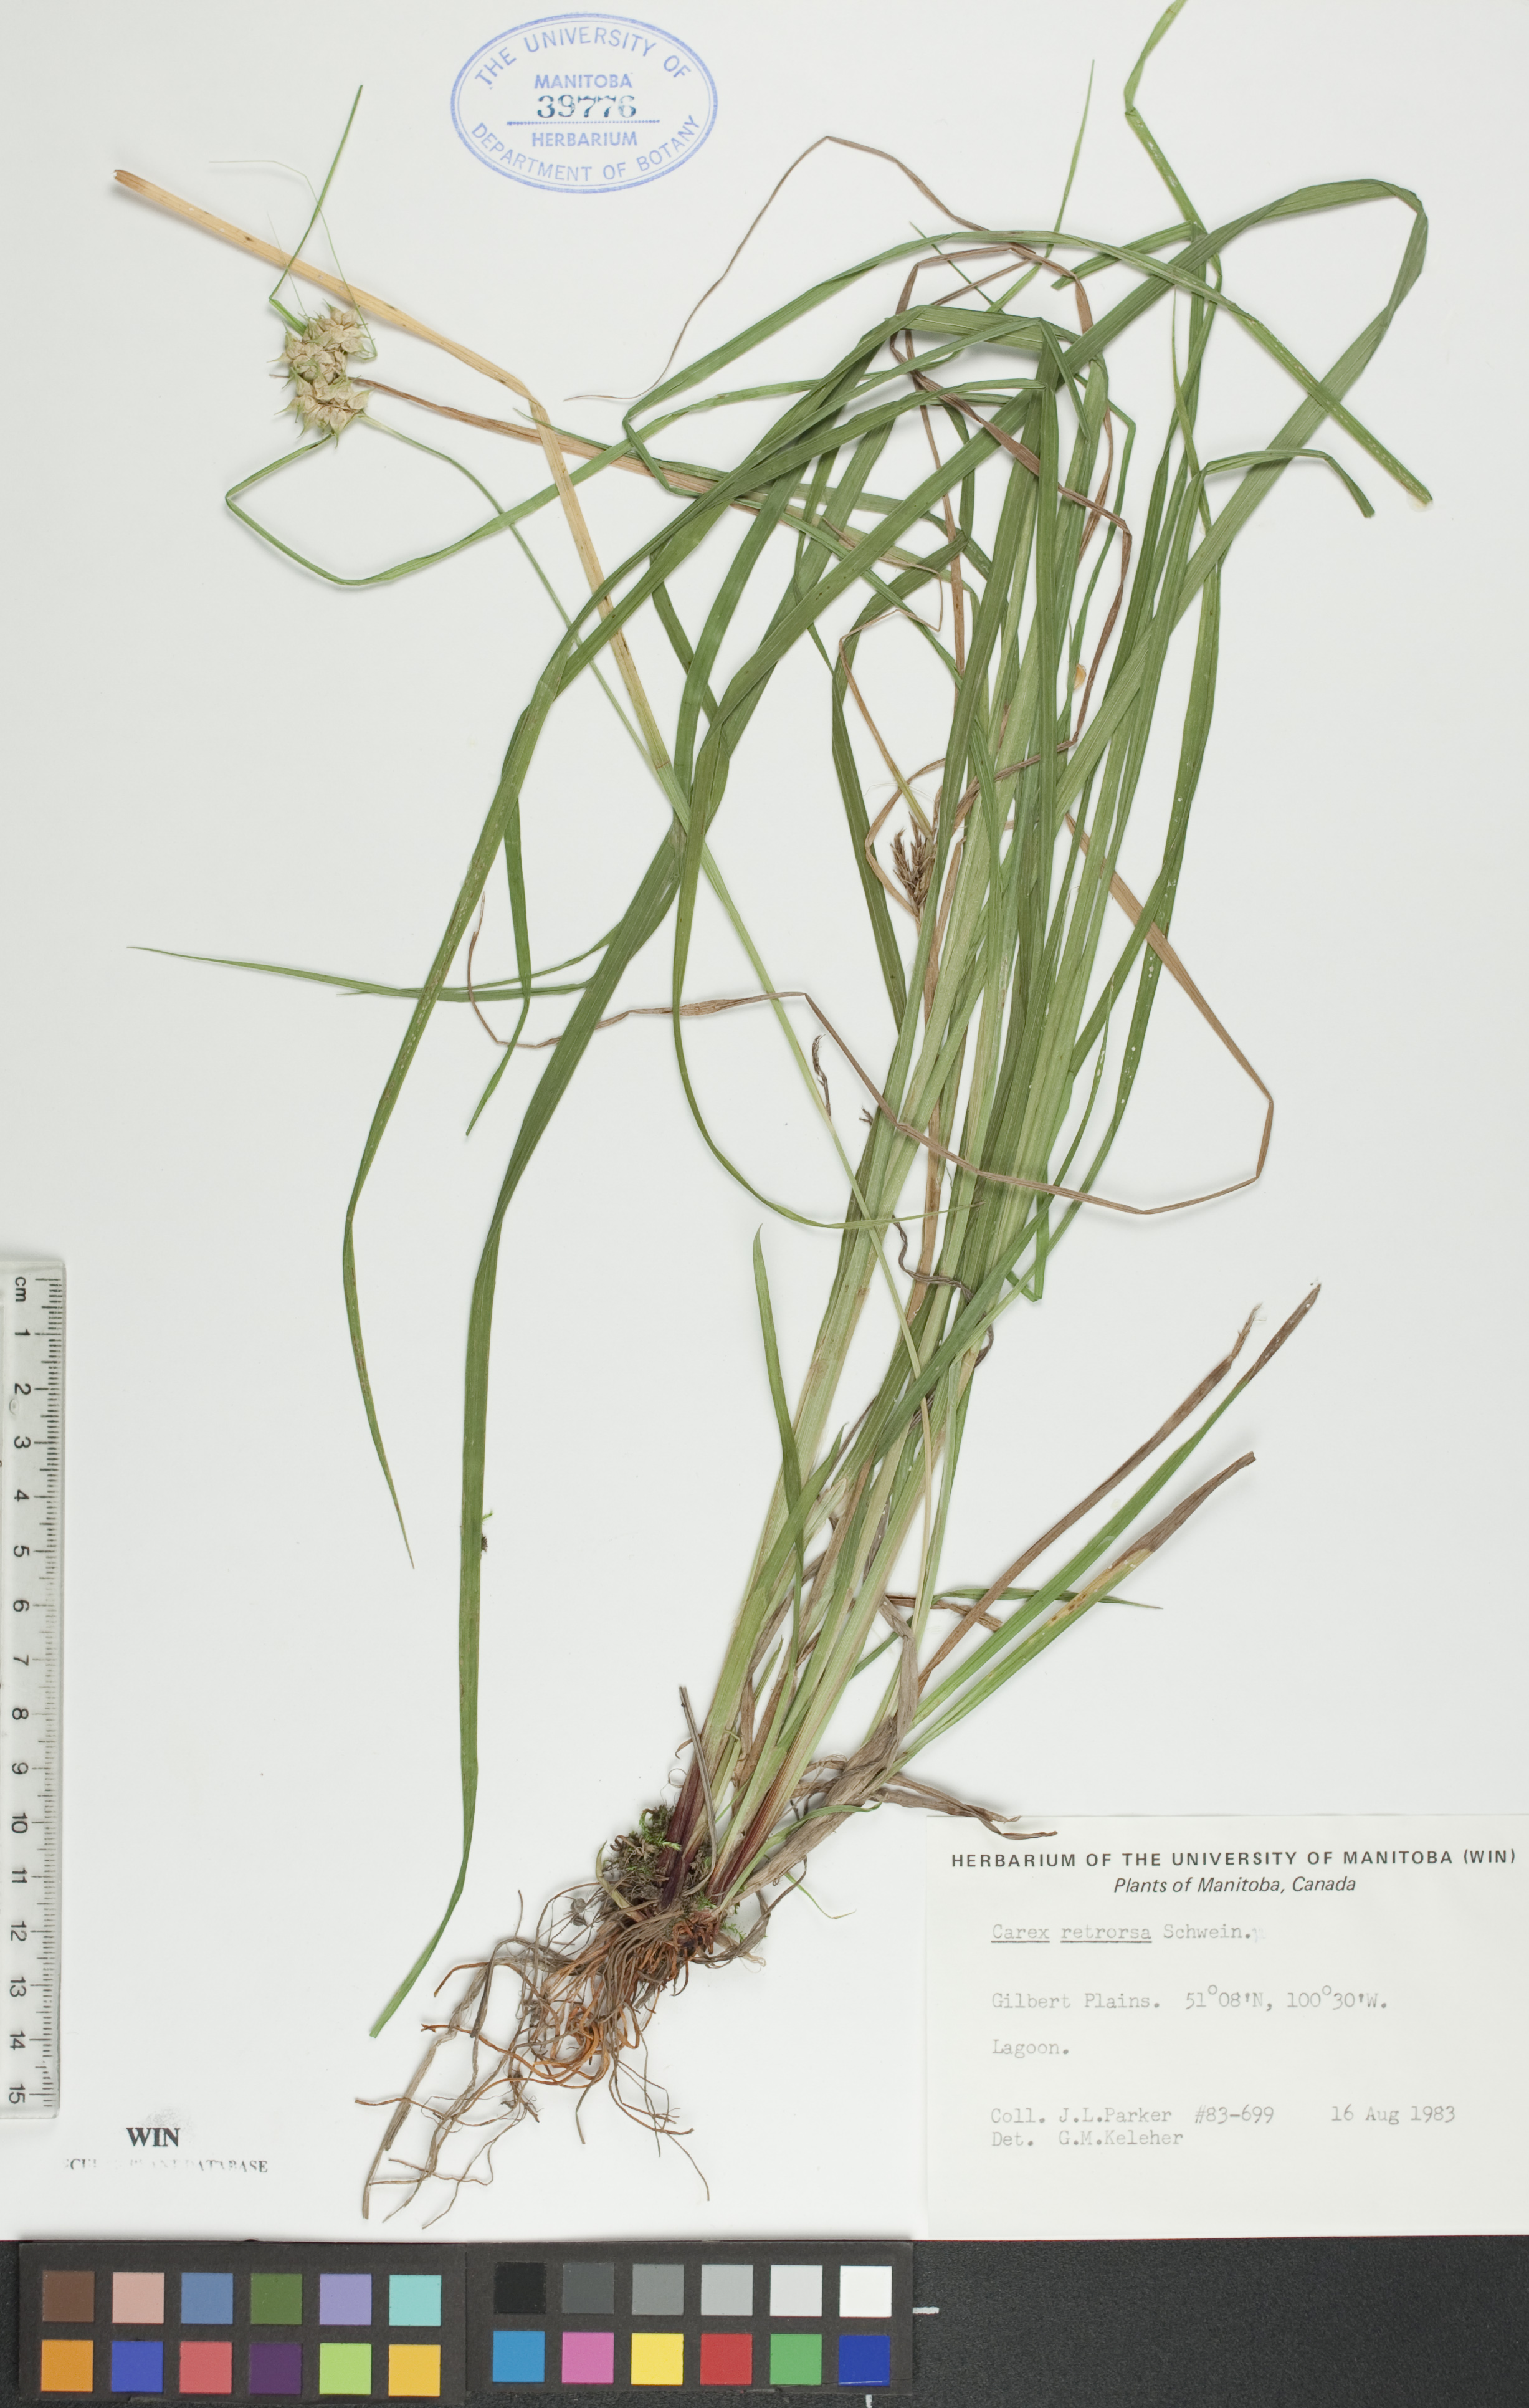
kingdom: Plantae
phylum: Tracheophyta
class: Liliopsida
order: Poales
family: Cyperaceae
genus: Carex
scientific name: Carex retrorsa
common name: Knot-sheath sedge
